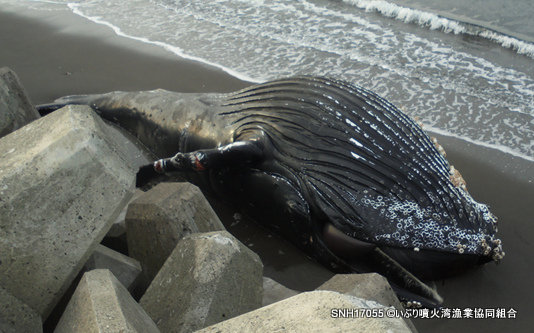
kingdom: Animalia
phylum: Chordata
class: Mammalia
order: Cetacea
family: Balaenopteridae
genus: Megaptera
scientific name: Megaptera novaeangliae
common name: Humpback whale
